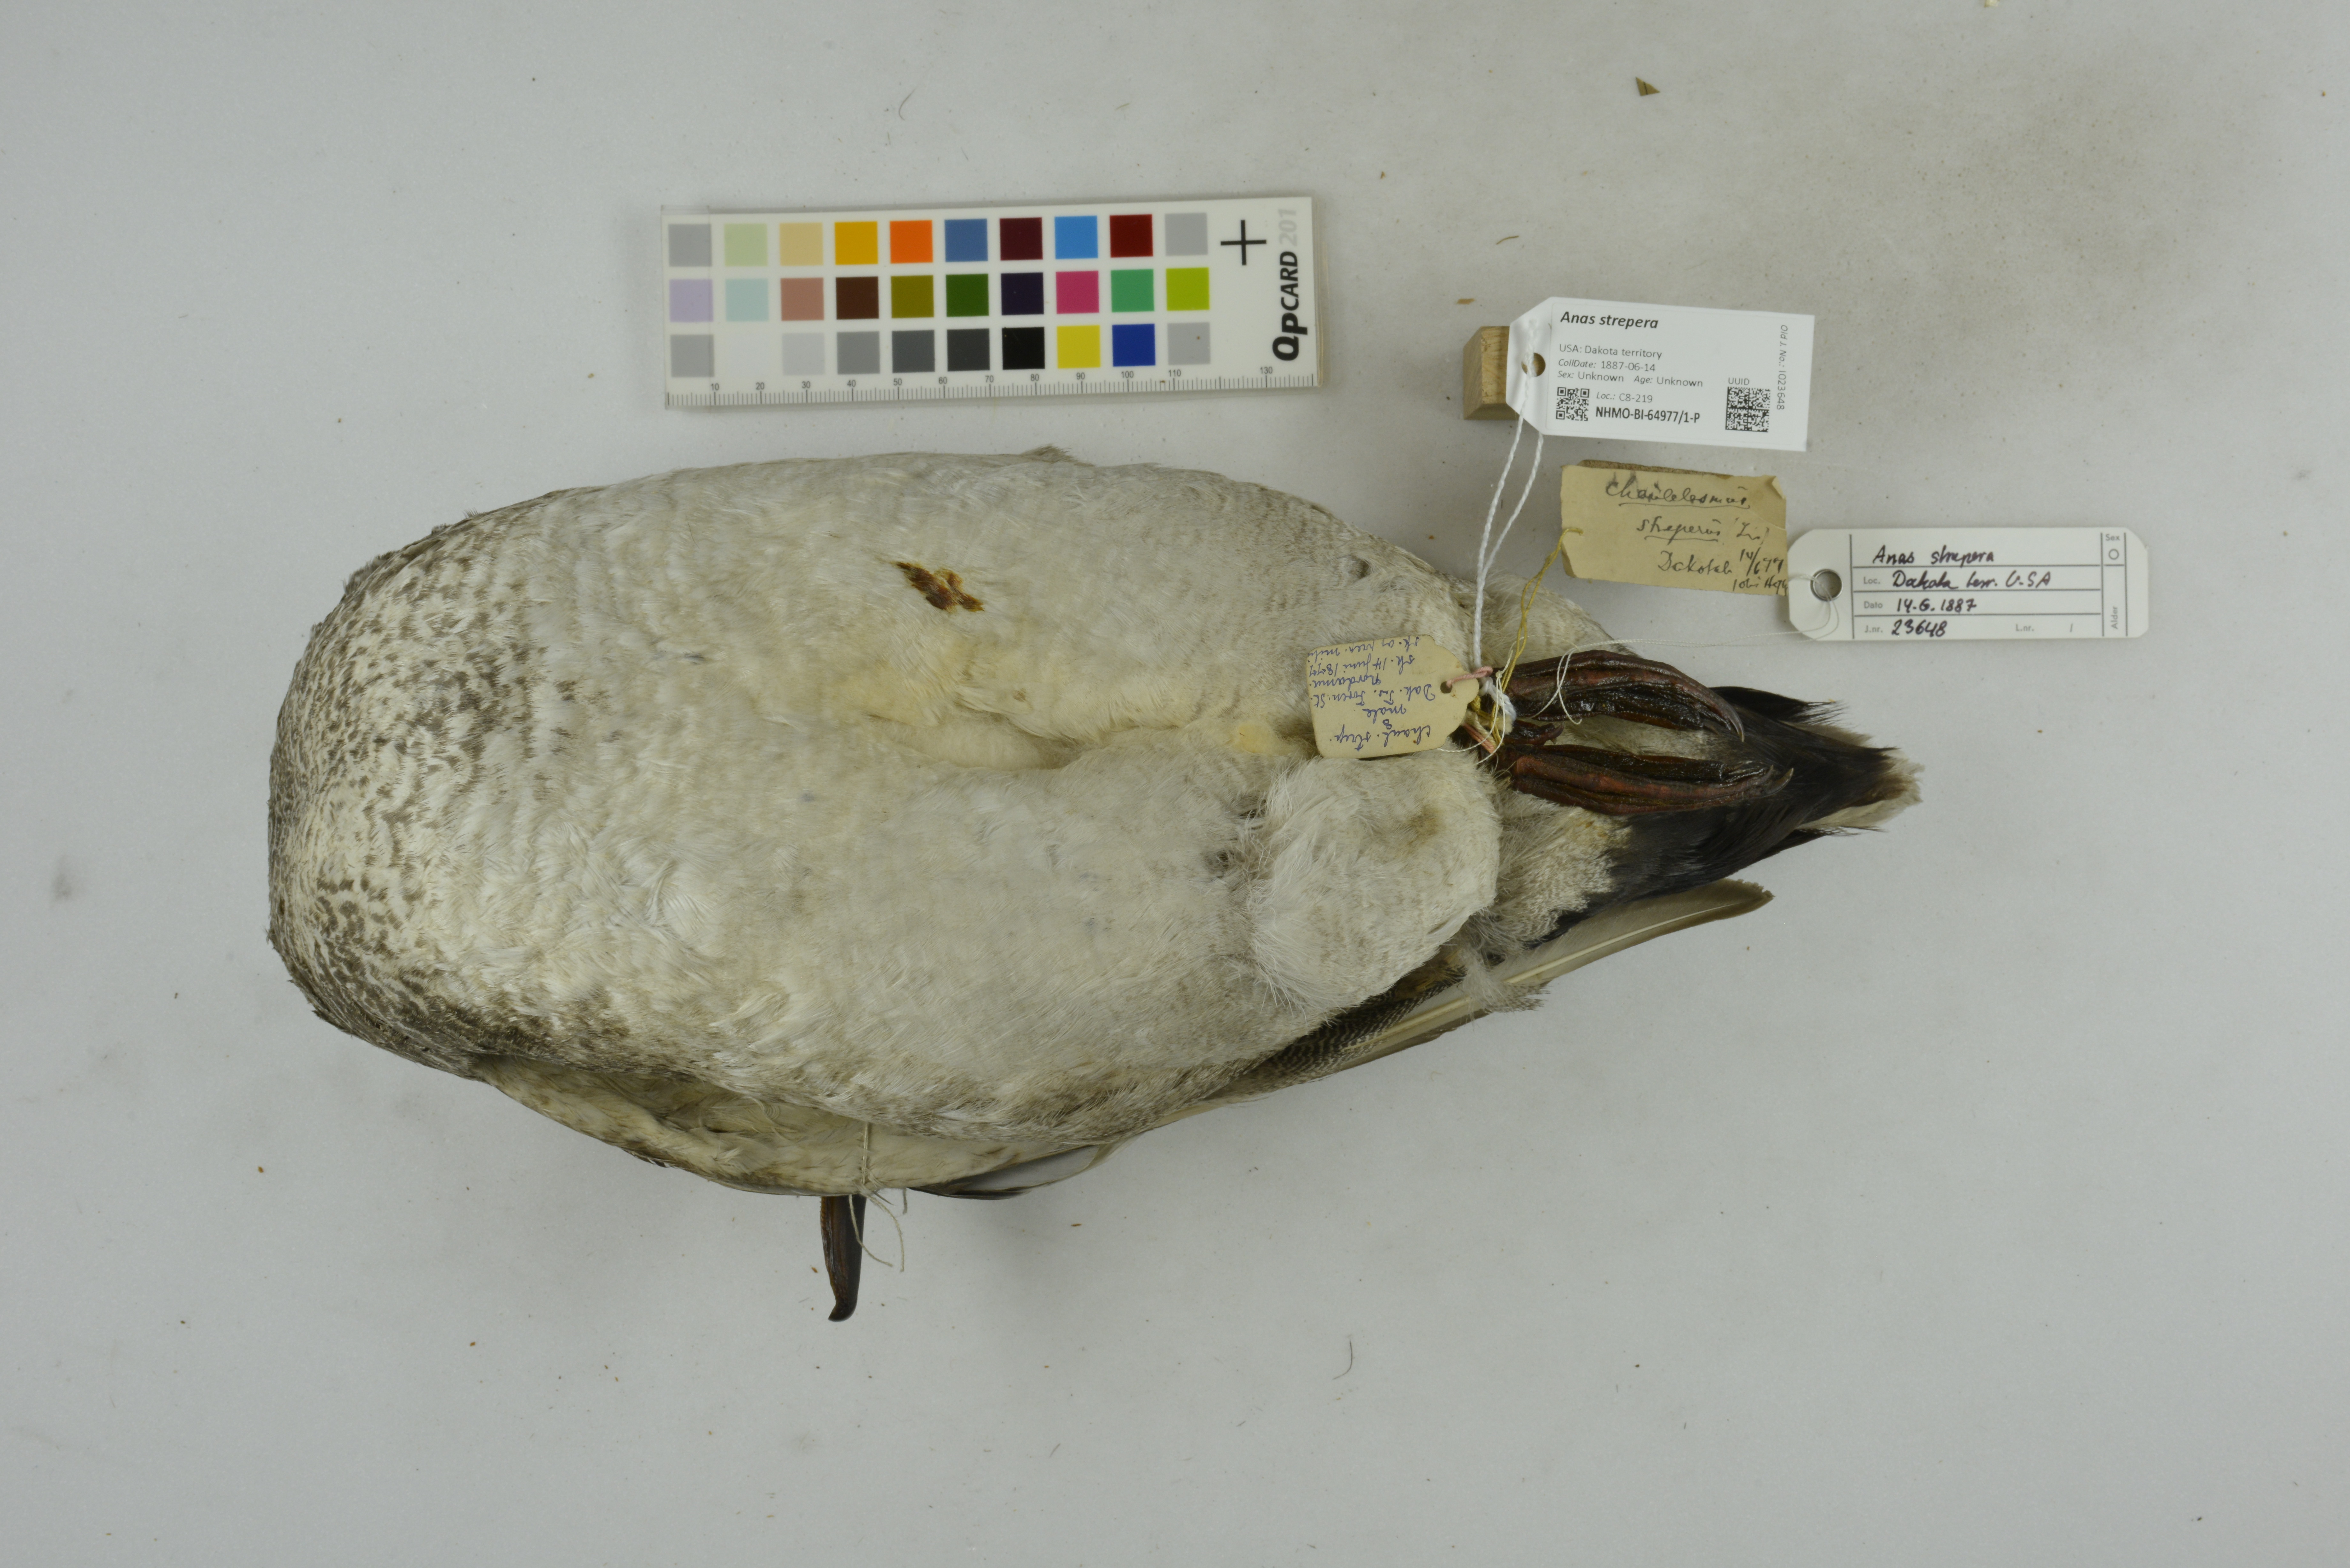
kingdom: Animalia
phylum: Chordata
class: Aves
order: Anseriformes
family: Anatidae
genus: Mareca
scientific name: Mareca strepera
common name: Gadwall
